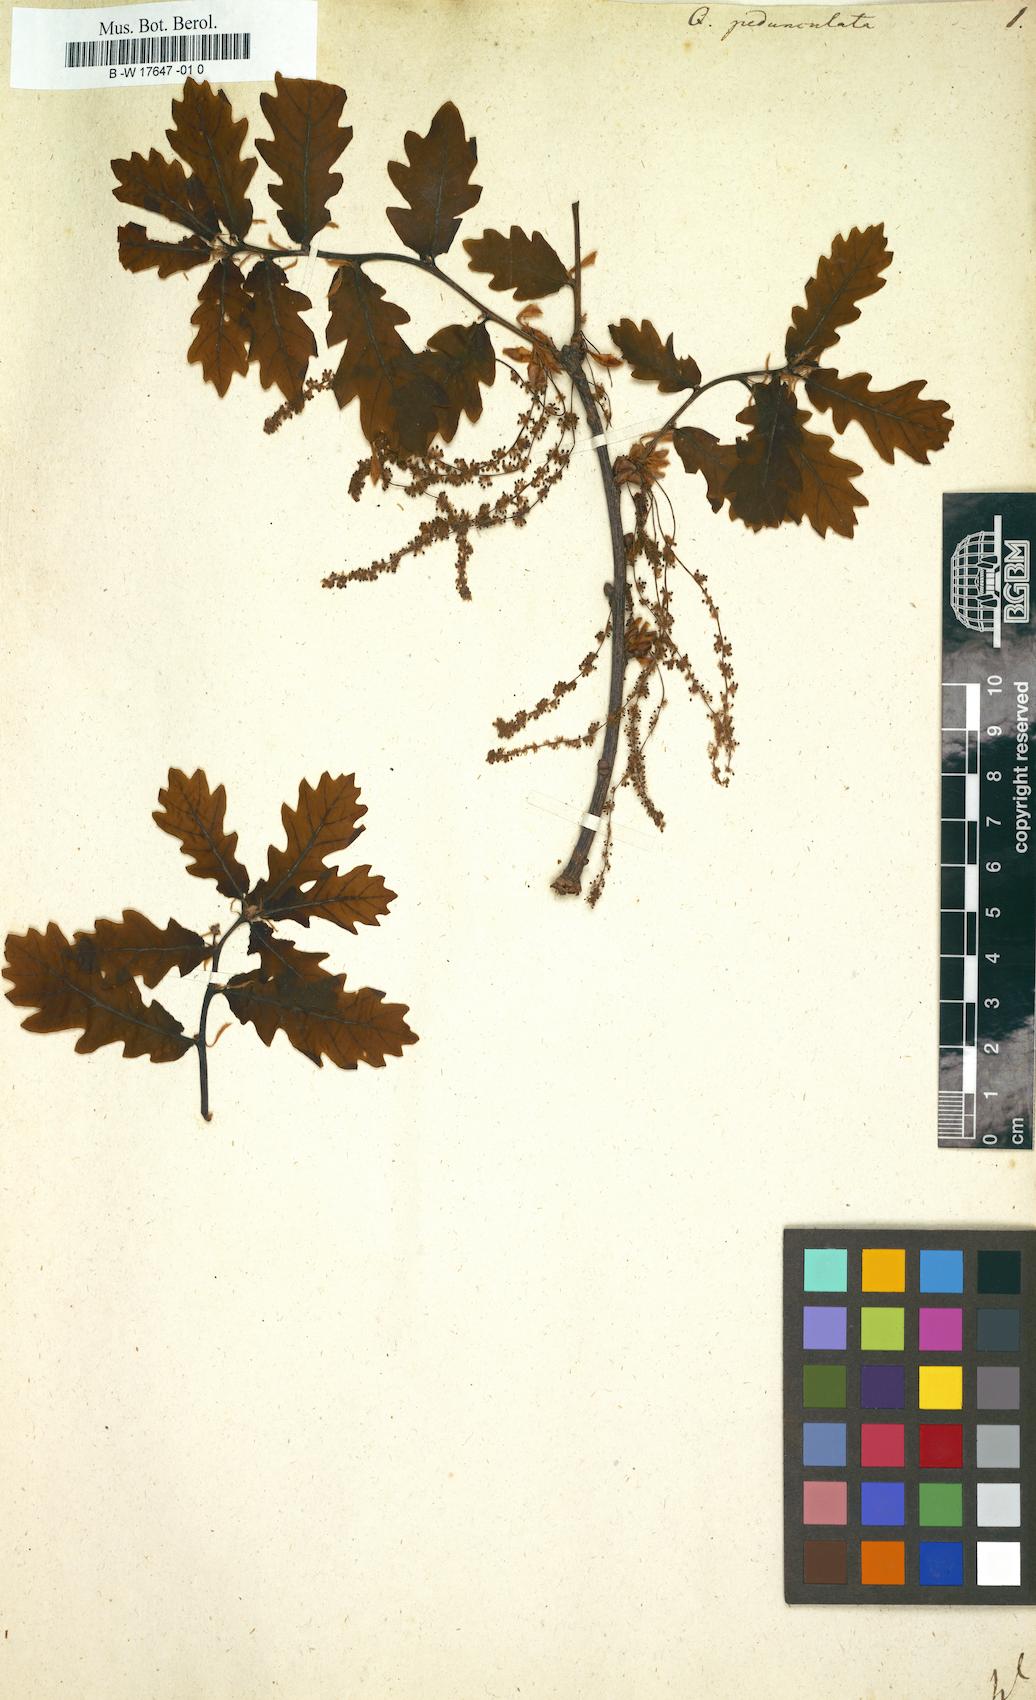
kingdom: Plantae
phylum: Tracheophyta
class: Magnoliopsida
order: Fagales
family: Fagaceae
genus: Quercus
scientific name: Quercus pedunculata
